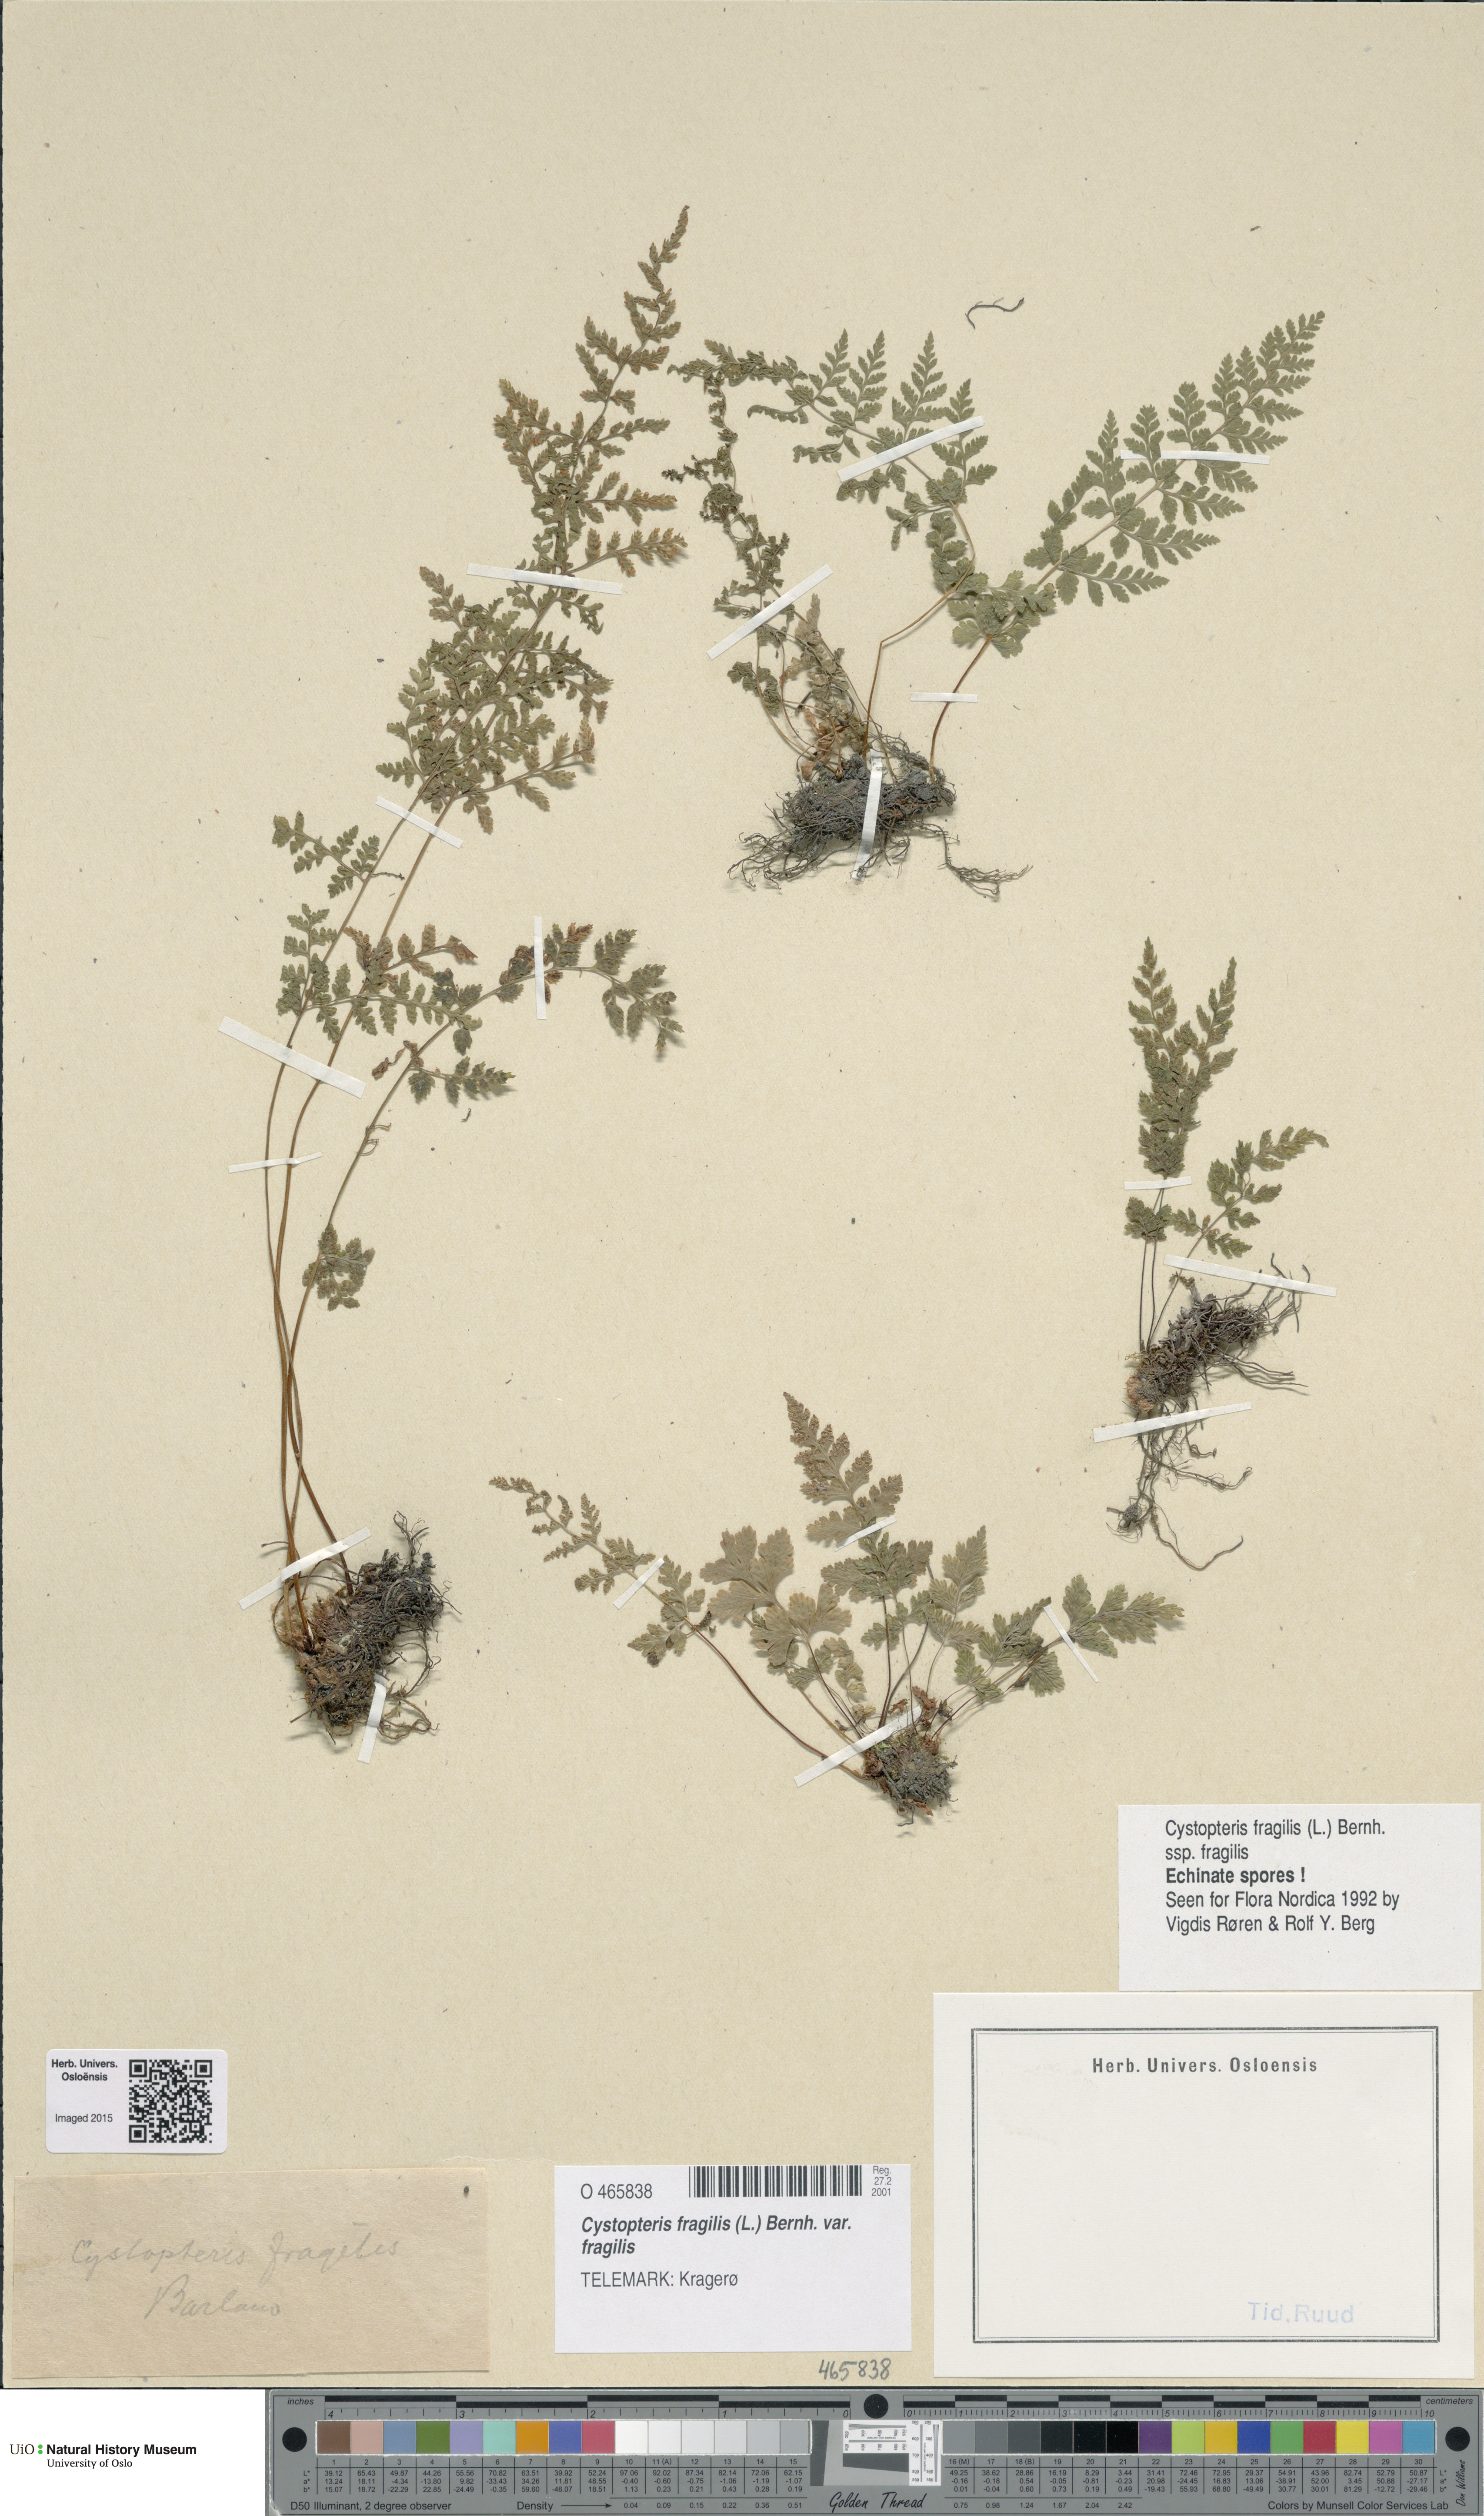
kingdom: Plantae
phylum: Tracheophyta
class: Polypodiopsida
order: Polypodiales
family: Cystopteridaceae
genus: Cystopteris
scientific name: Cystopteris fragilis
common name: Brittle bladder fern
